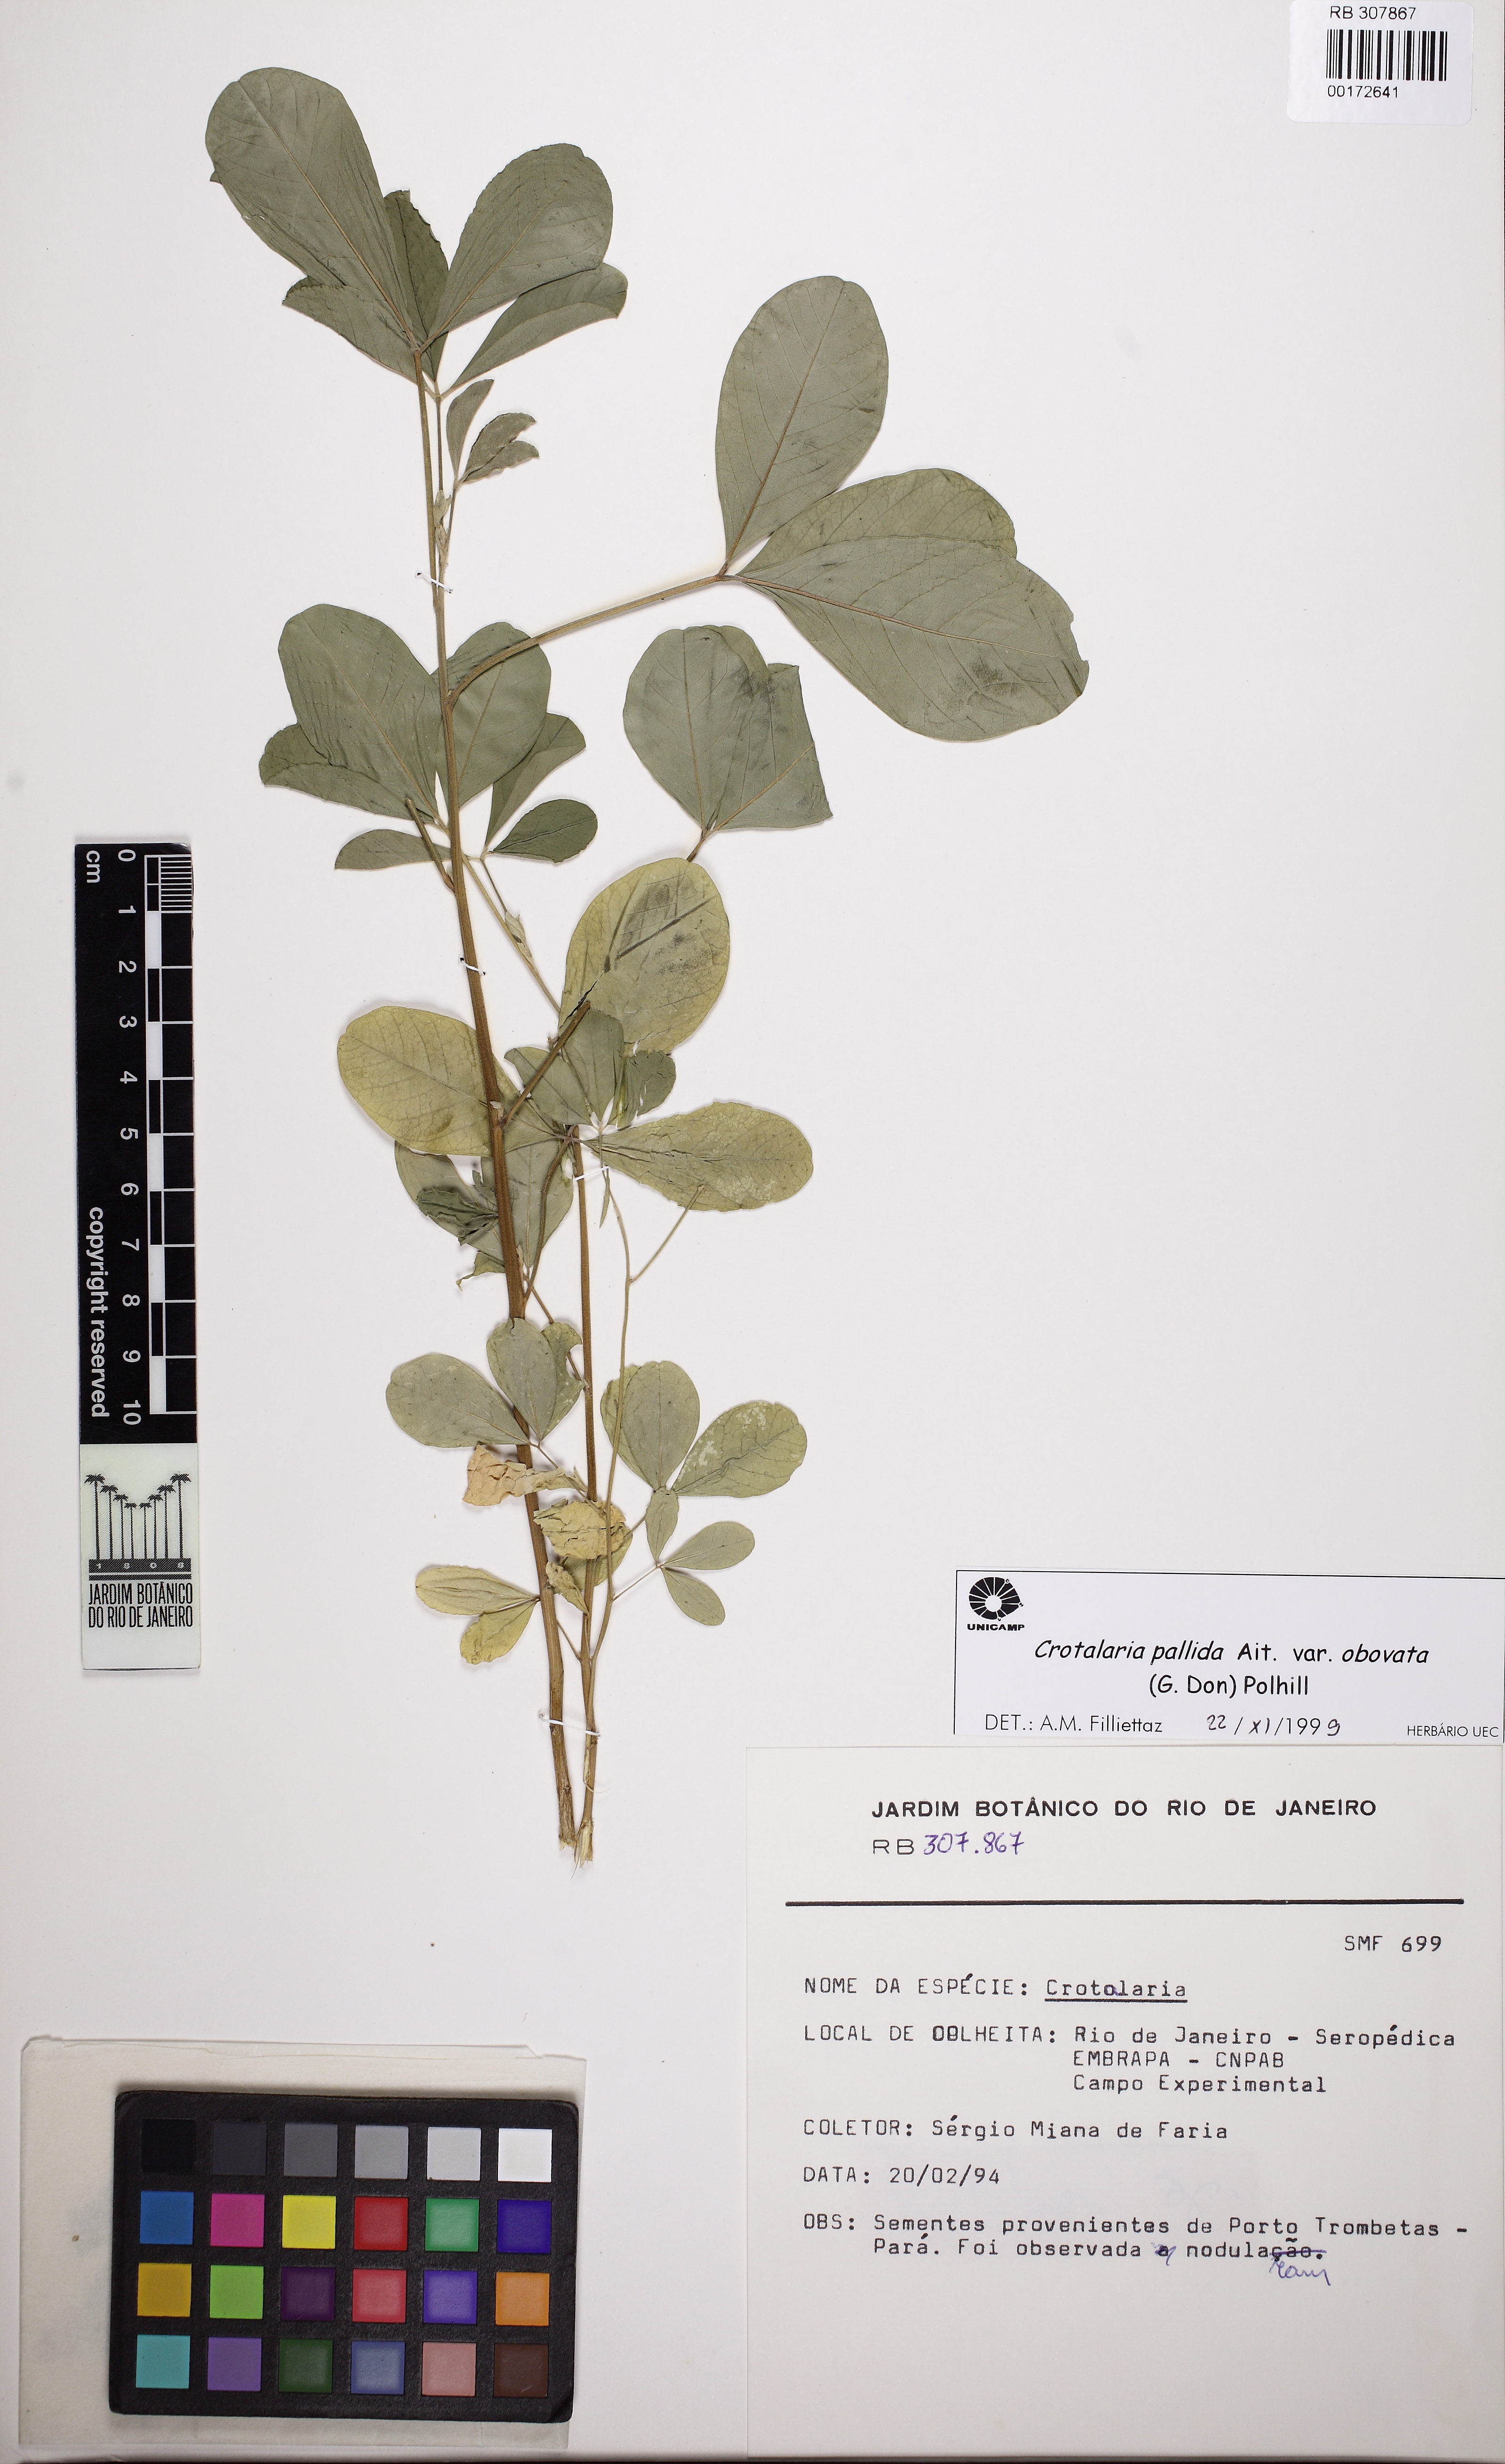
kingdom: Plantae
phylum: Tracheophyta
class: Magnoliopsida
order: Fabales
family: Fabaceae
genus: Crotalaria
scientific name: Crotalaria pallida
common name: Smooth rattlebox
